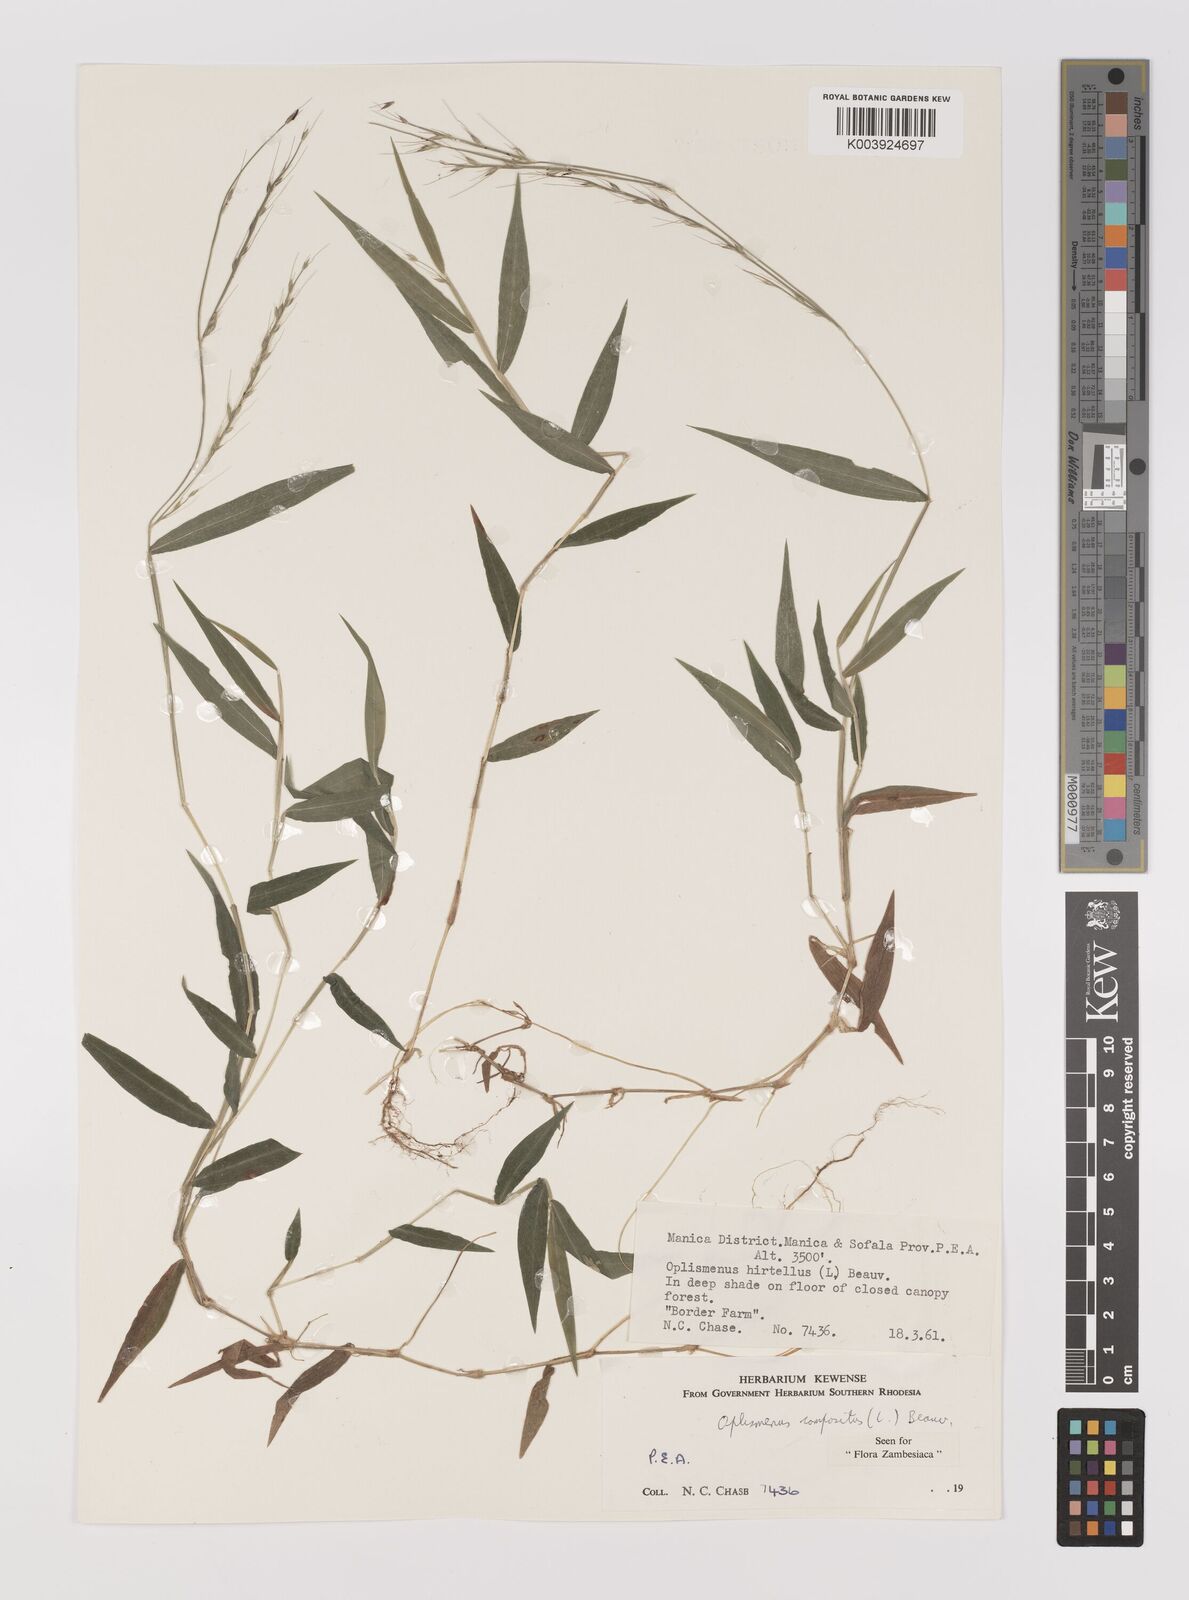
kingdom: Plantae
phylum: Tracheophyta
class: Liliopsida
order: Poales
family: Poaceae
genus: Oplismenus
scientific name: Oplismenus compositus
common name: Running mountain grass
